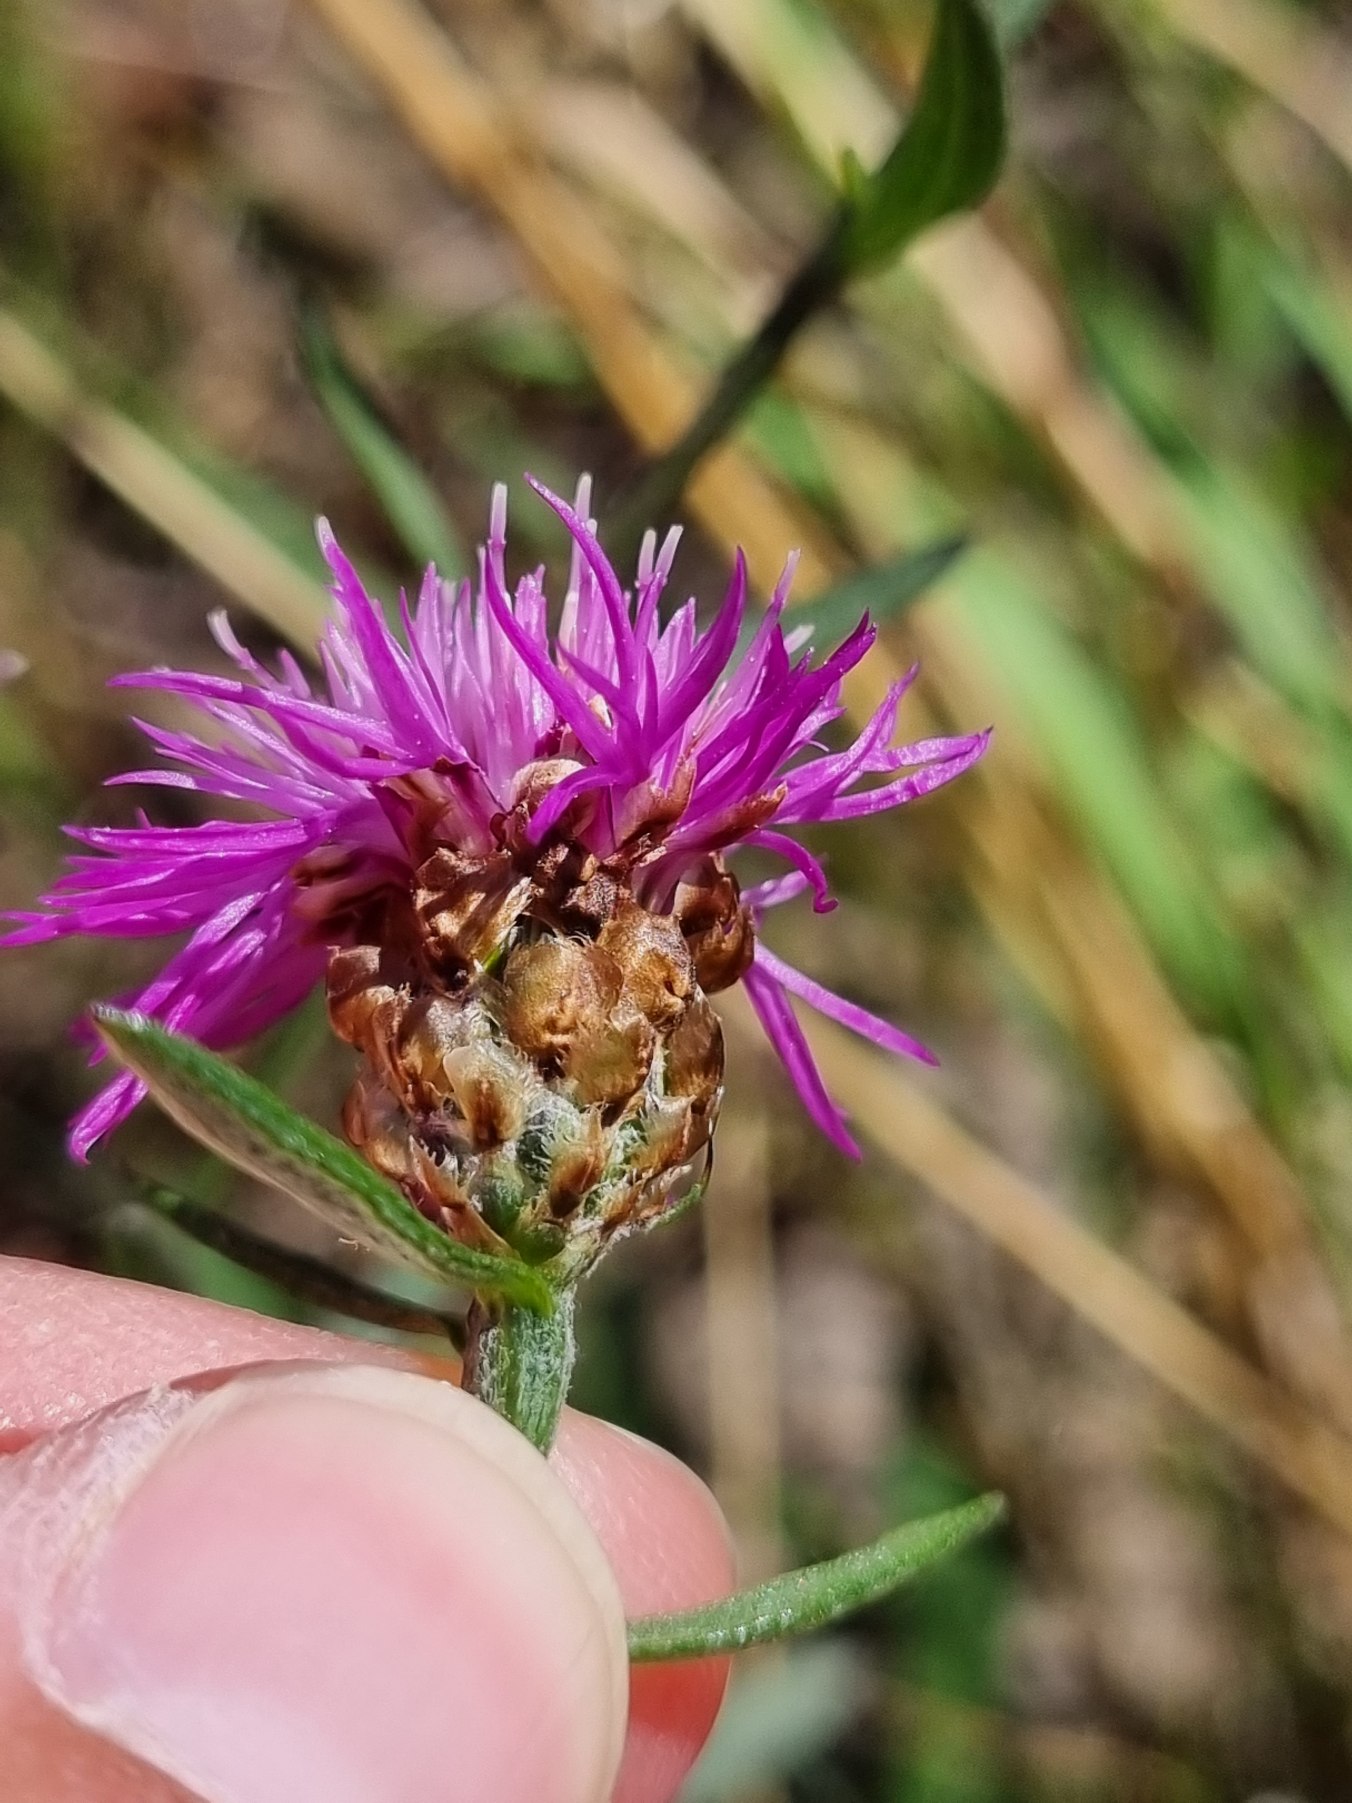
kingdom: Plantae
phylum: Tracheophyta
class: Magnoliopsida
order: Asterales
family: Asteraceae
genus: Centaurea
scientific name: Centaurea jacea
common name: Almindelig knopurt
